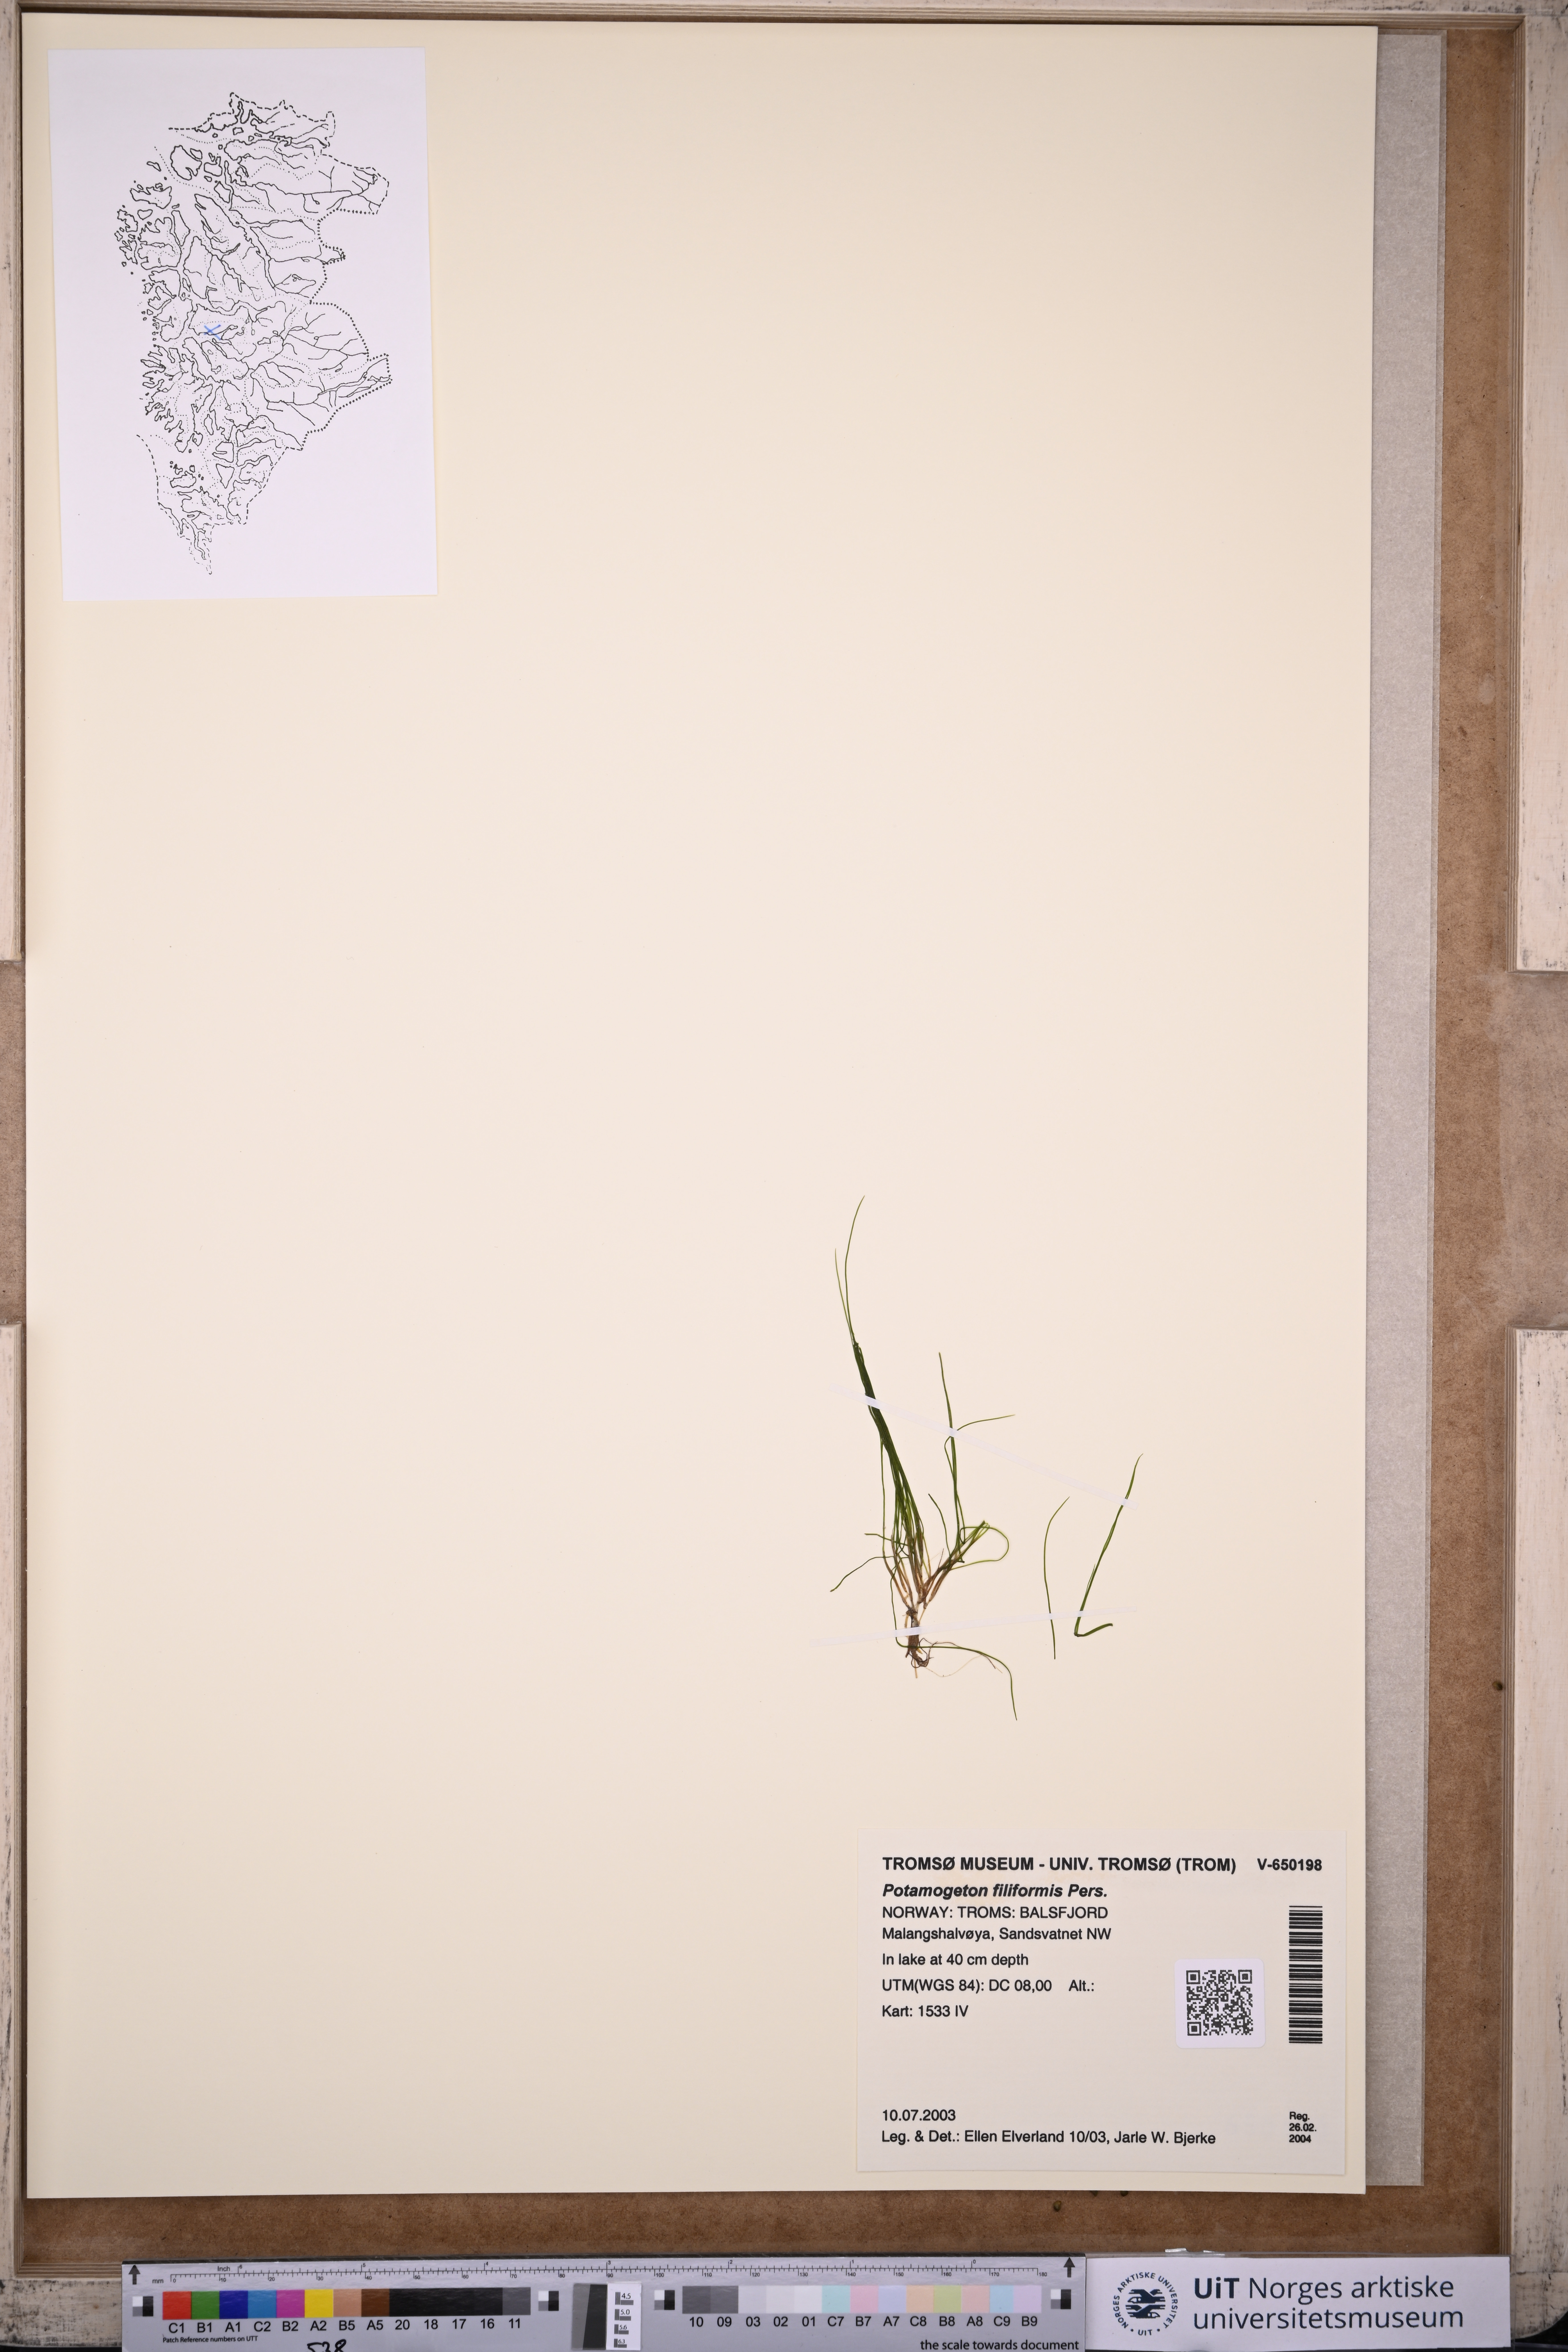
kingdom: Plantae
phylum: Tracheophyta
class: Liliopsida
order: Alismatales
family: Potamogetonaceae
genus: Stuckenia
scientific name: Stuckenia filiformis
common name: Alpine thread-leaved pondweed
